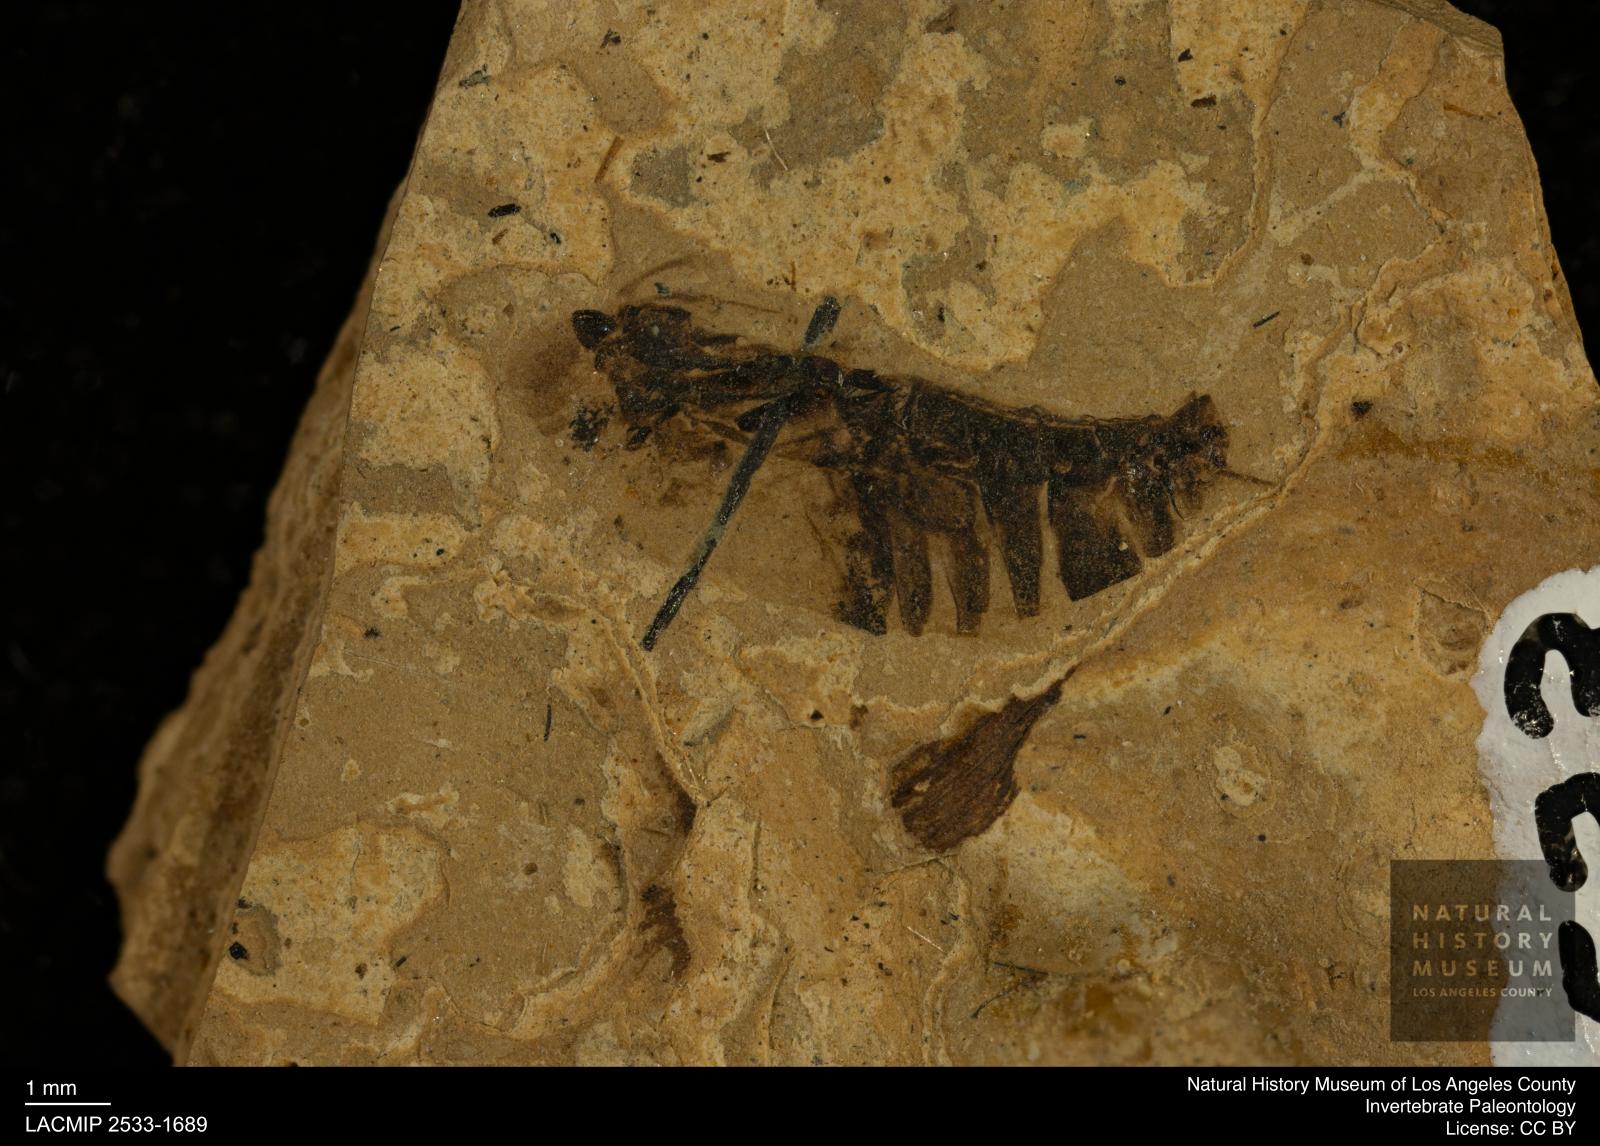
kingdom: Animalia
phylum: Arthropoda
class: Insecta
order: Hemiptera
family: Notonectidae
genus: Notonecta
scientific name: Notonecta
